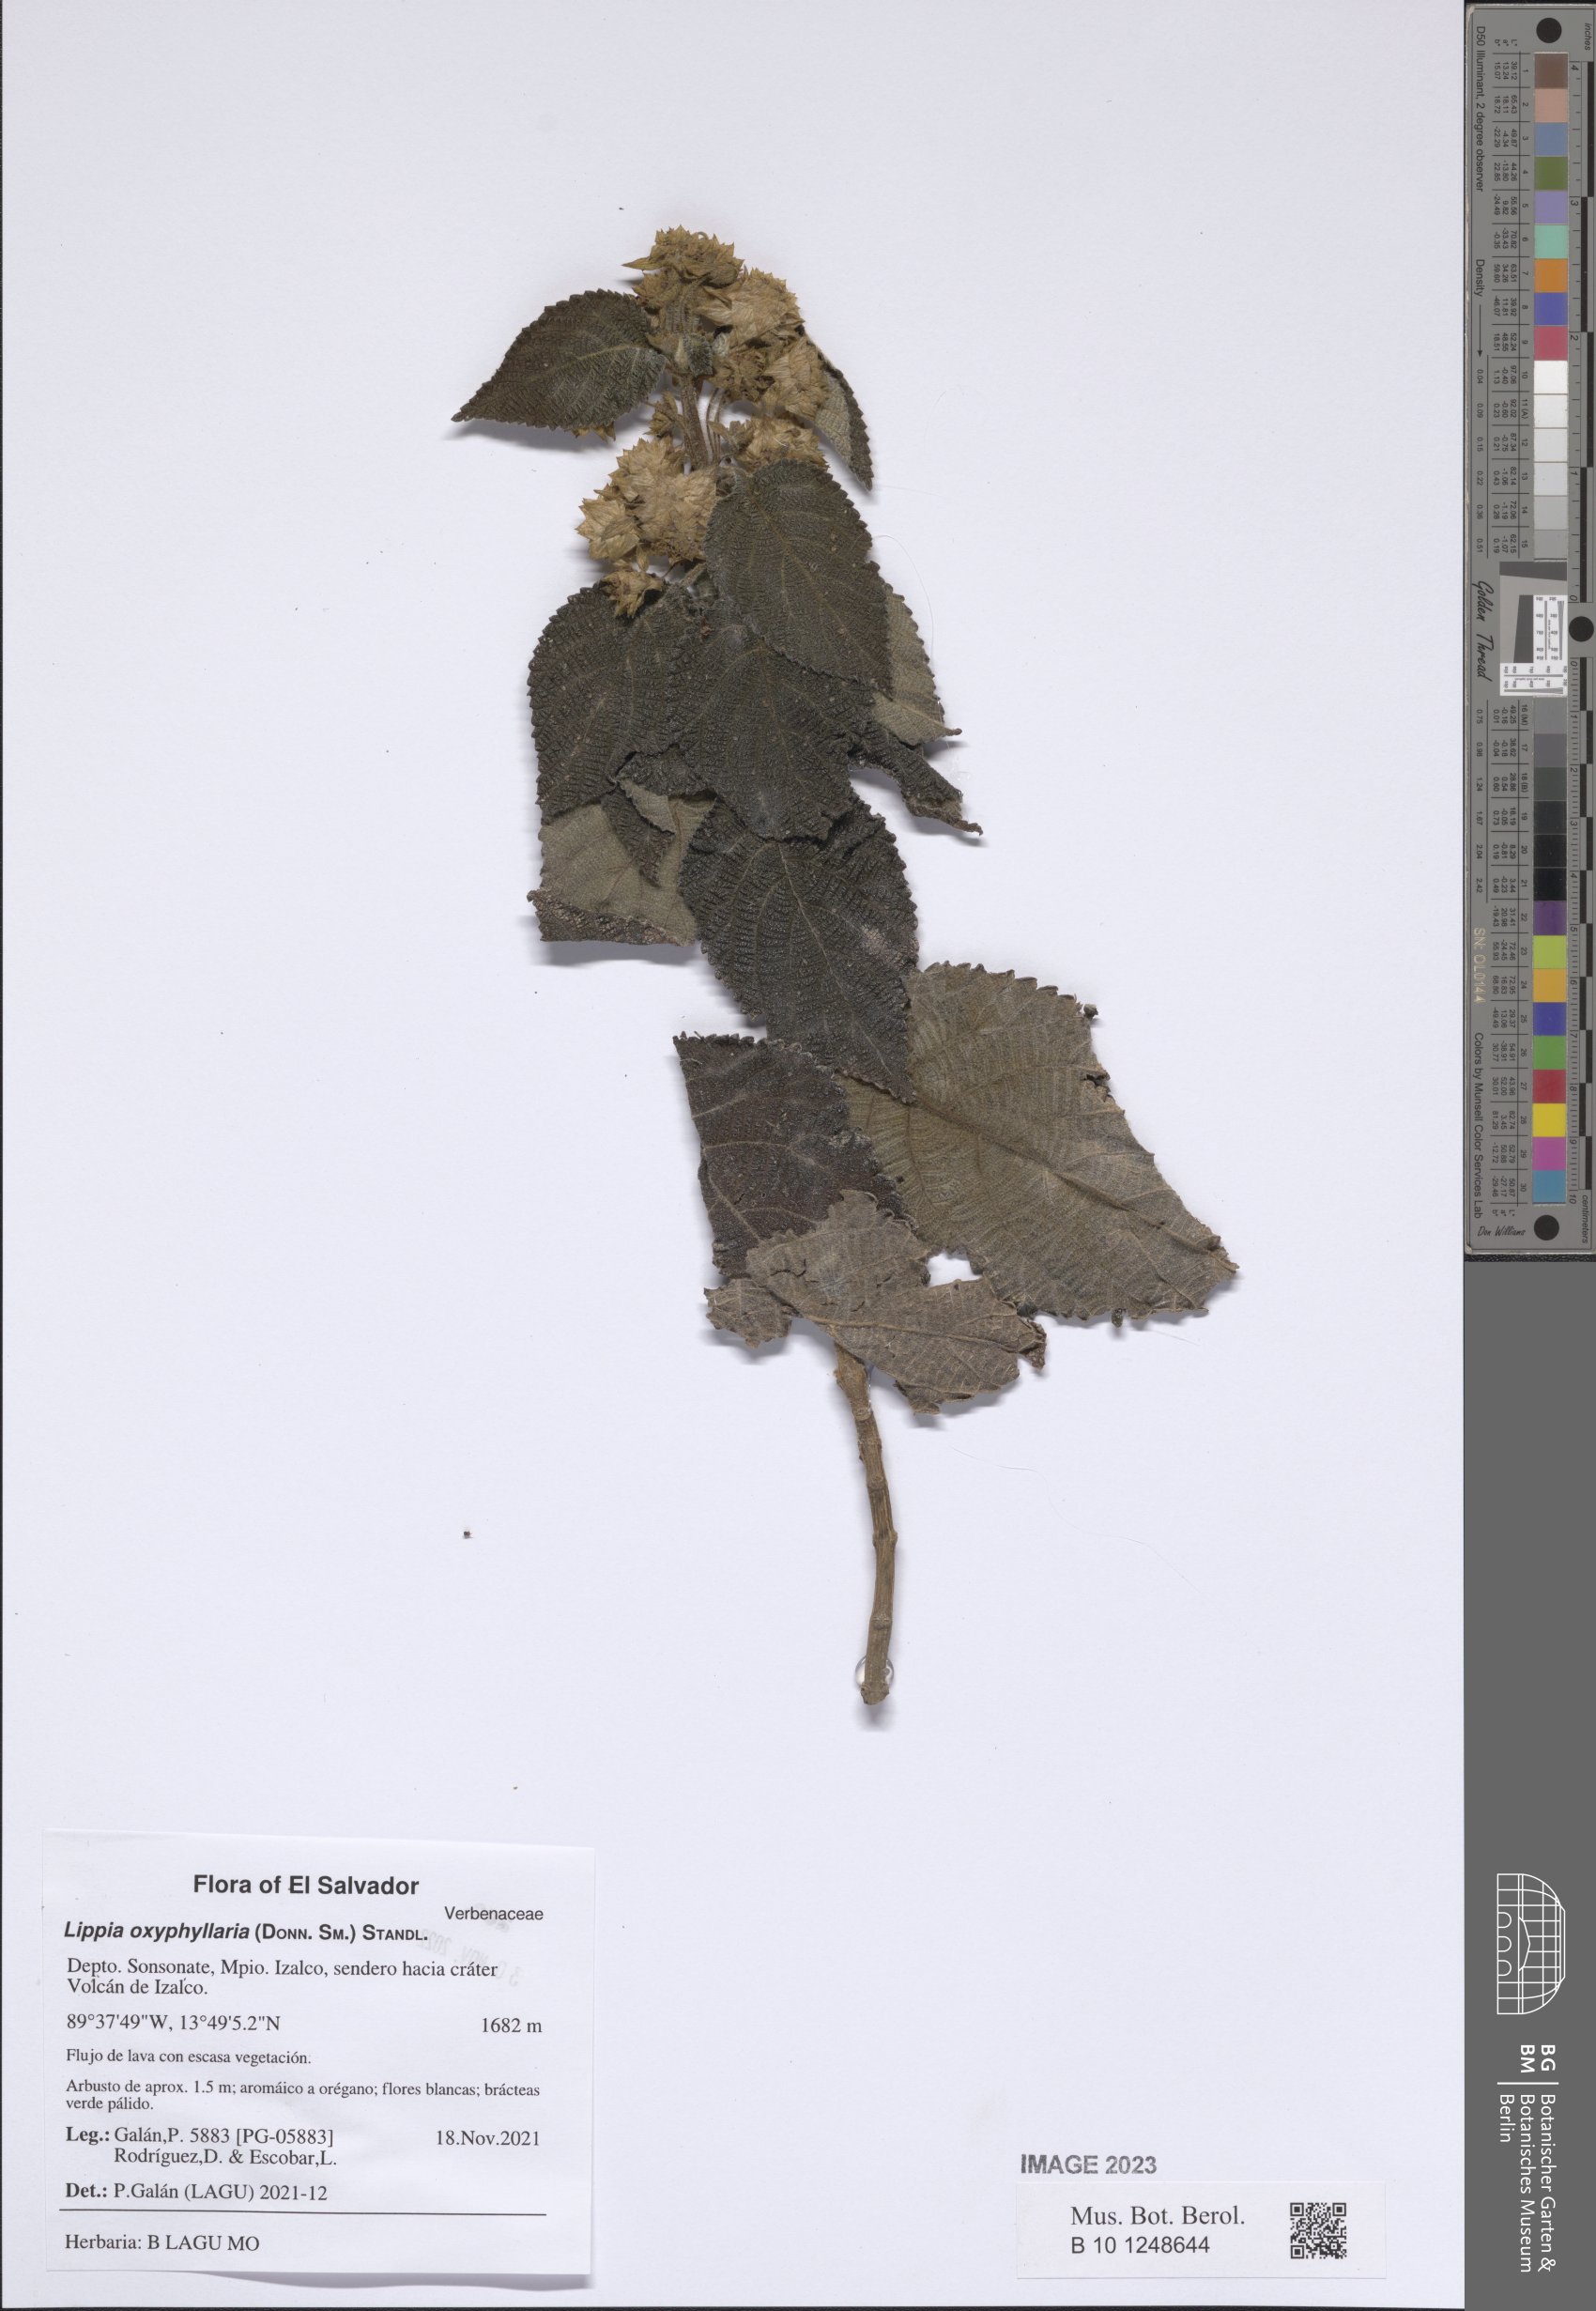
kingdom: Plantae
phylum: Tracheophyta
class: Magnoliopsida
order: Lamiales
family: Verbenaceae
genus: Lippia
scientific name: Lippia oxyphyllaria
